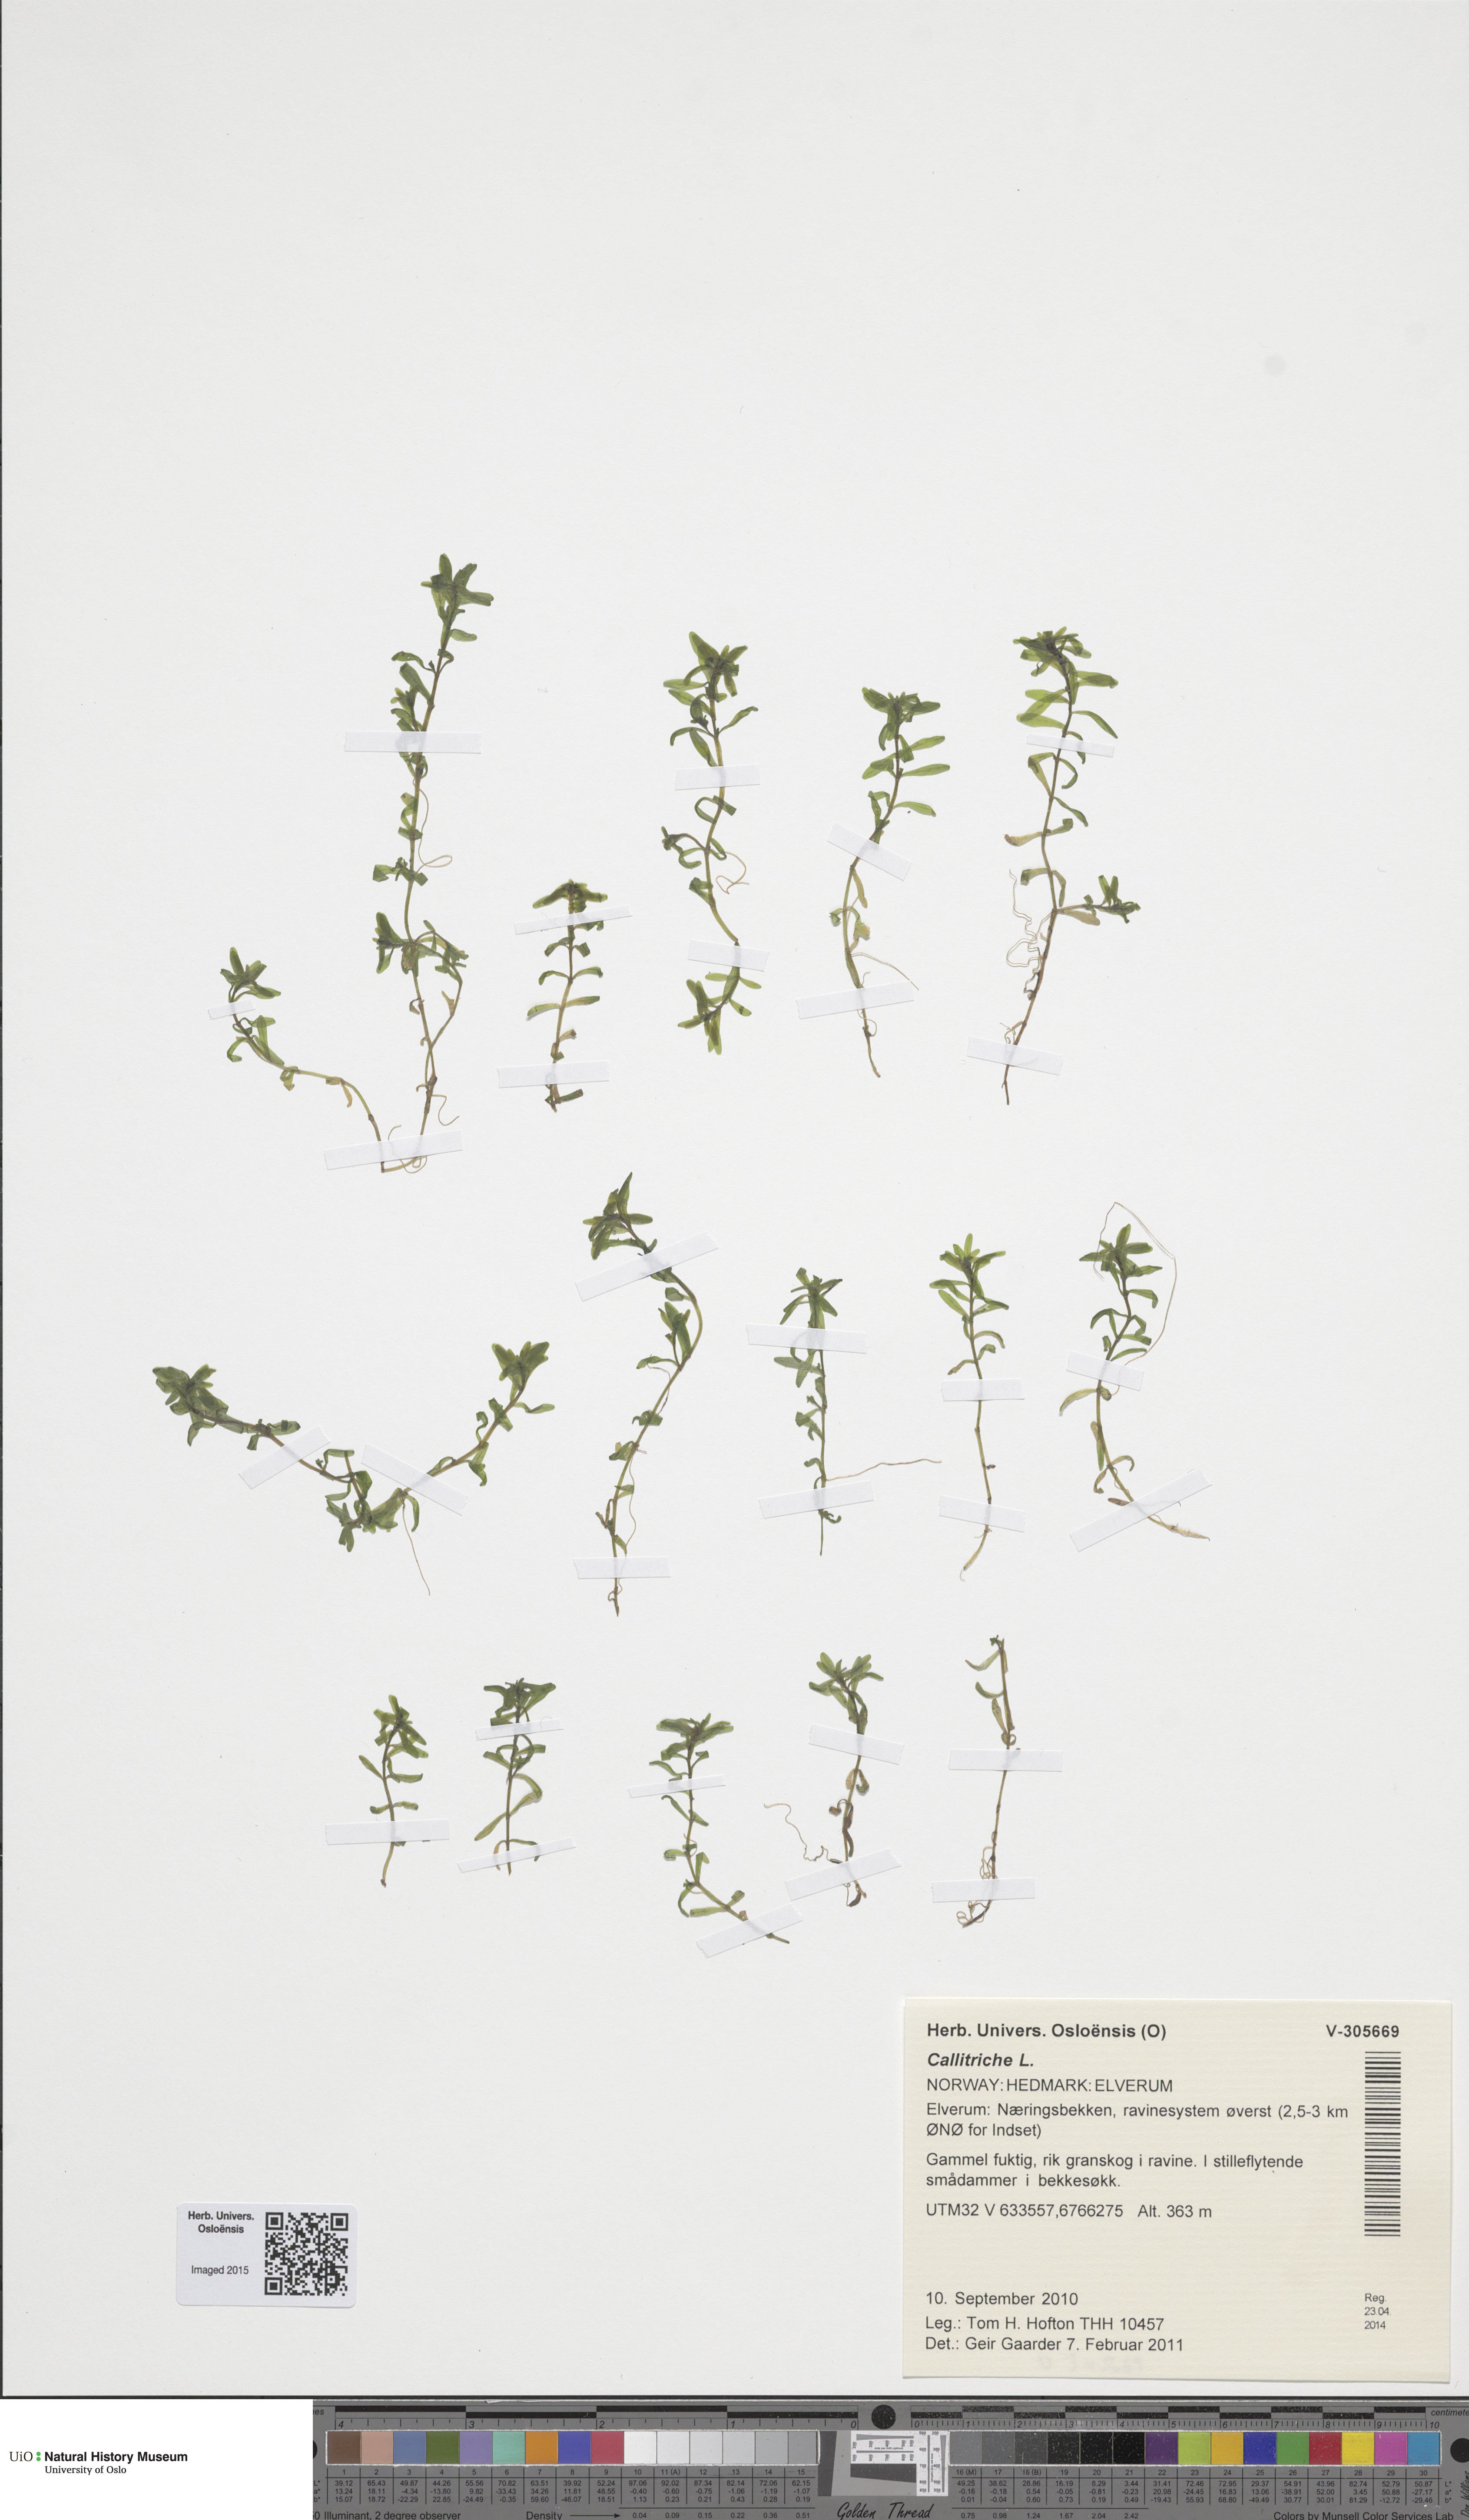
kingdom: Plantae
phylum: Tracheophyta
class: Magnoliopsida
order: Lamiales
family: Plantaginaceae
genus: Callitriche
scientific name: Callitriche
